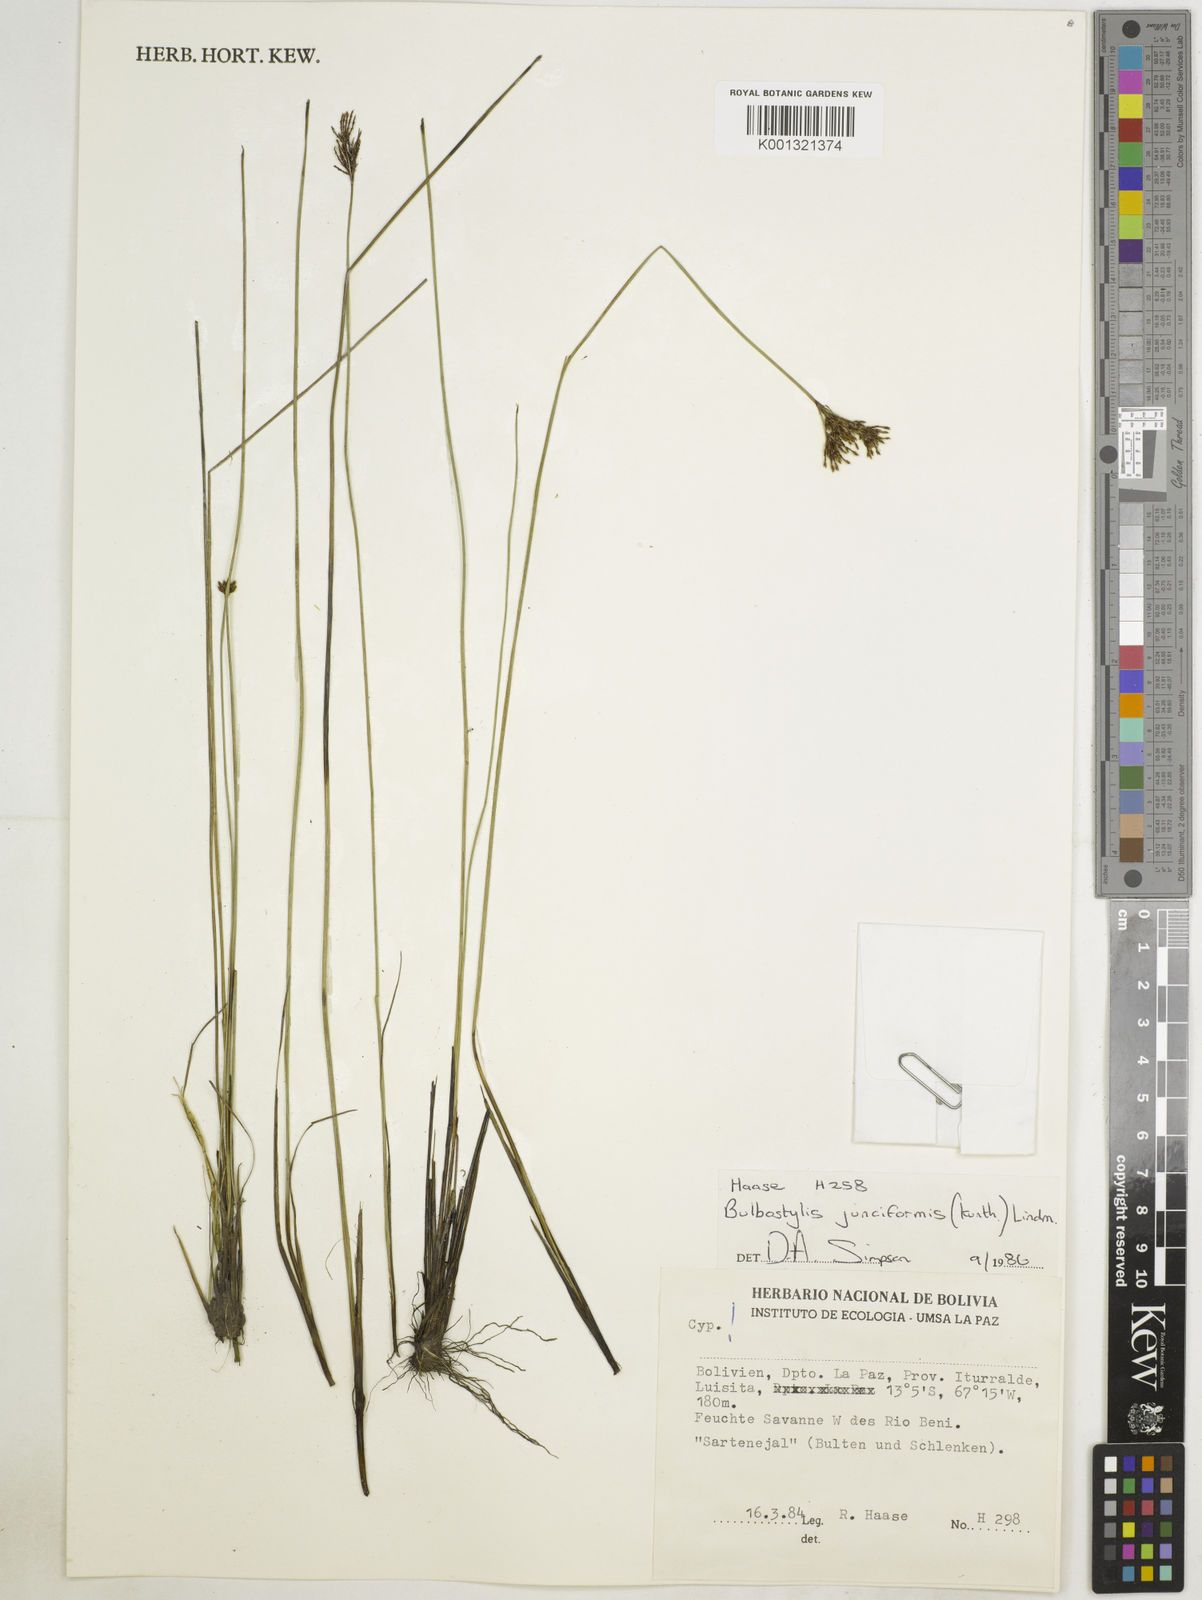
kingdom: Plantae
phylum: Tracheophyta
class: Liliopsida
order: Poales
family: Cyperaceae
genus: Bulbostylis
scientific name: Bulbostylis junciformis
